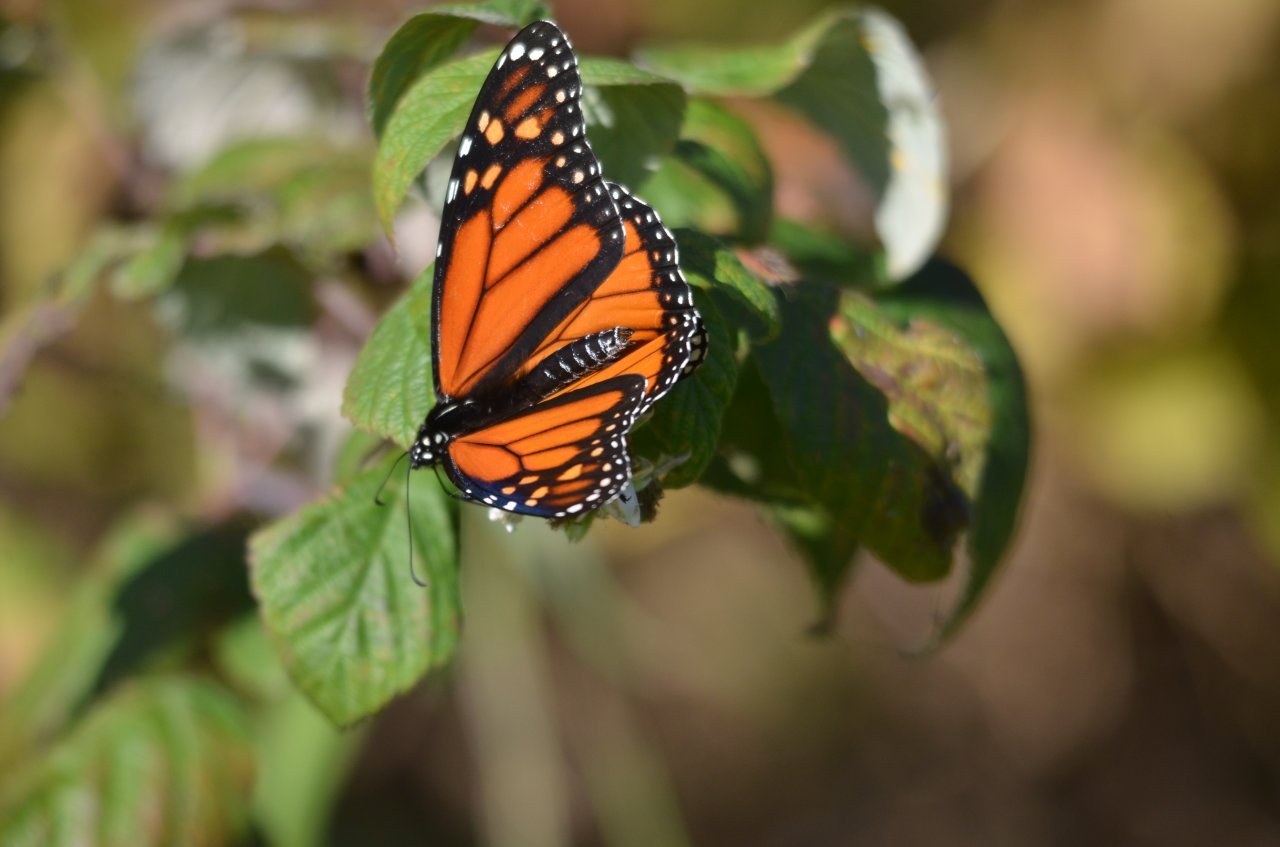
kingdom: Animalia
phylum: Arthropoda
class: Insecta
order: Lepidoptera
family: Nymphalidae
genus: Danaus
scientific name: Danaus plexippus
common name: Monarch
